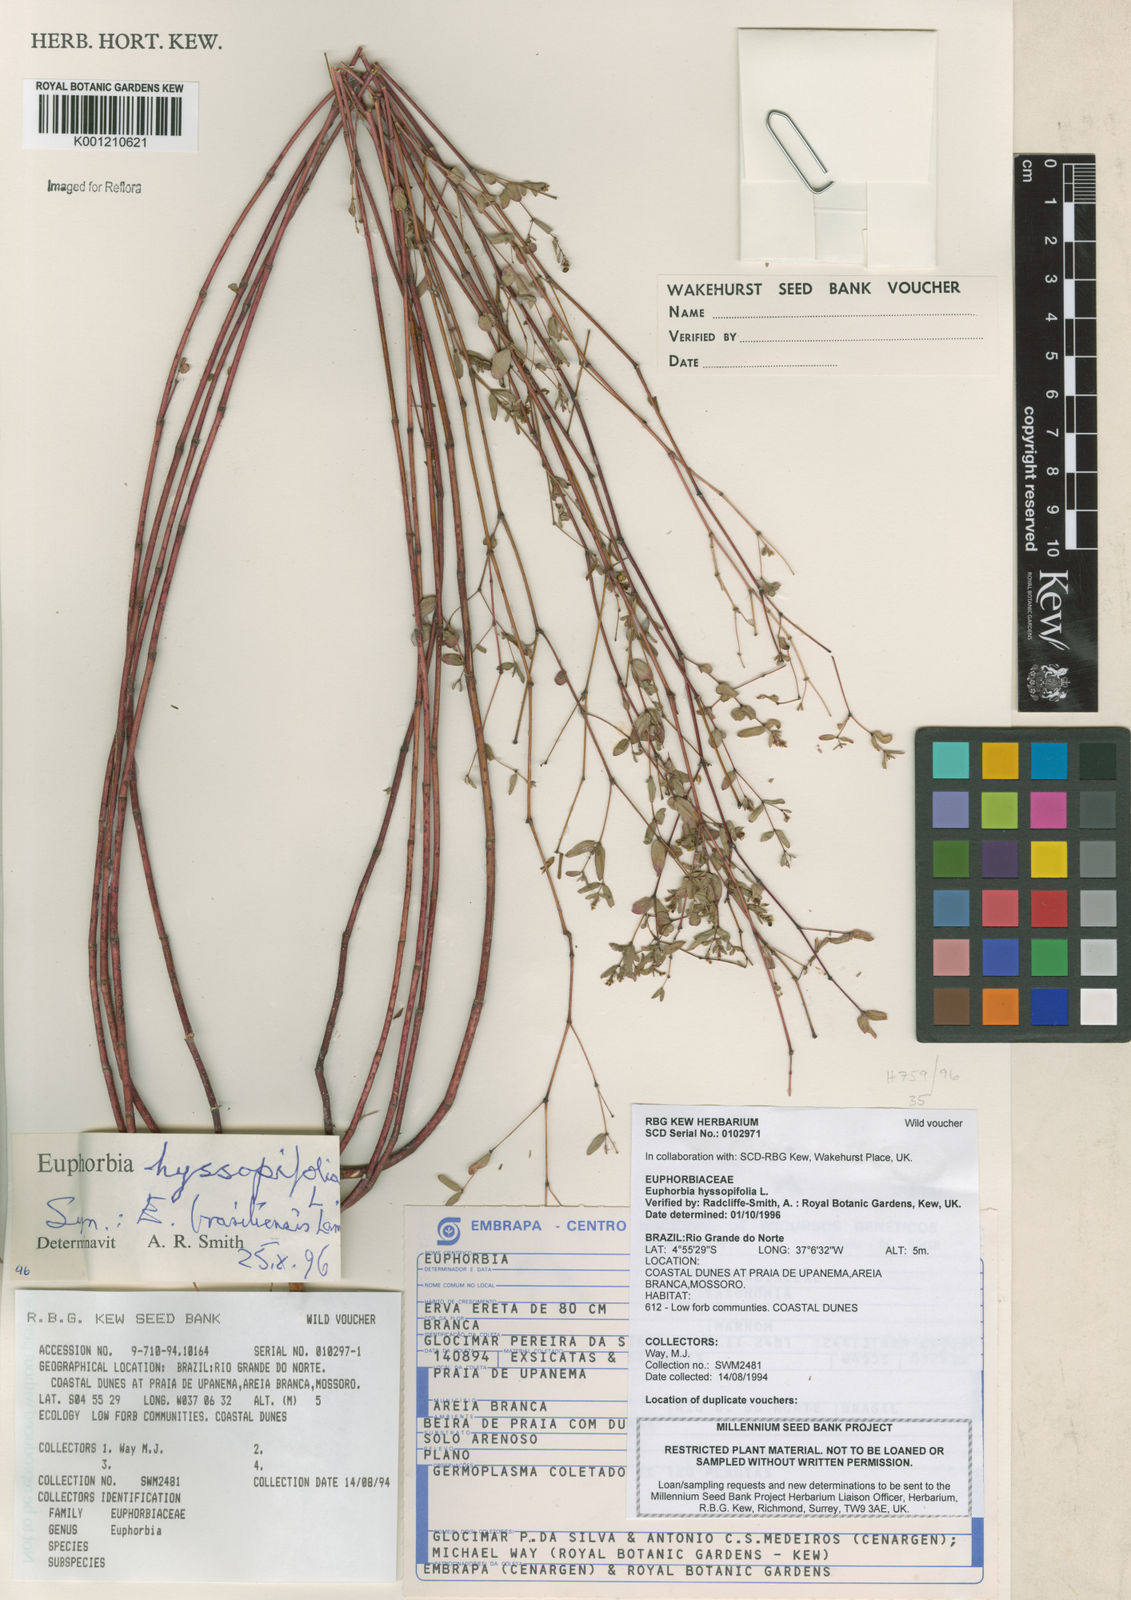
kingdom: Plantae
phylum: Tracheophyta
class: Magnoliopsida
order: Malpighiales
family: Euphorbiaceae
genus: Euphorbia
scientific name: Euphorbia hyssopifolia
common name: Hyssopleaf sandmat
